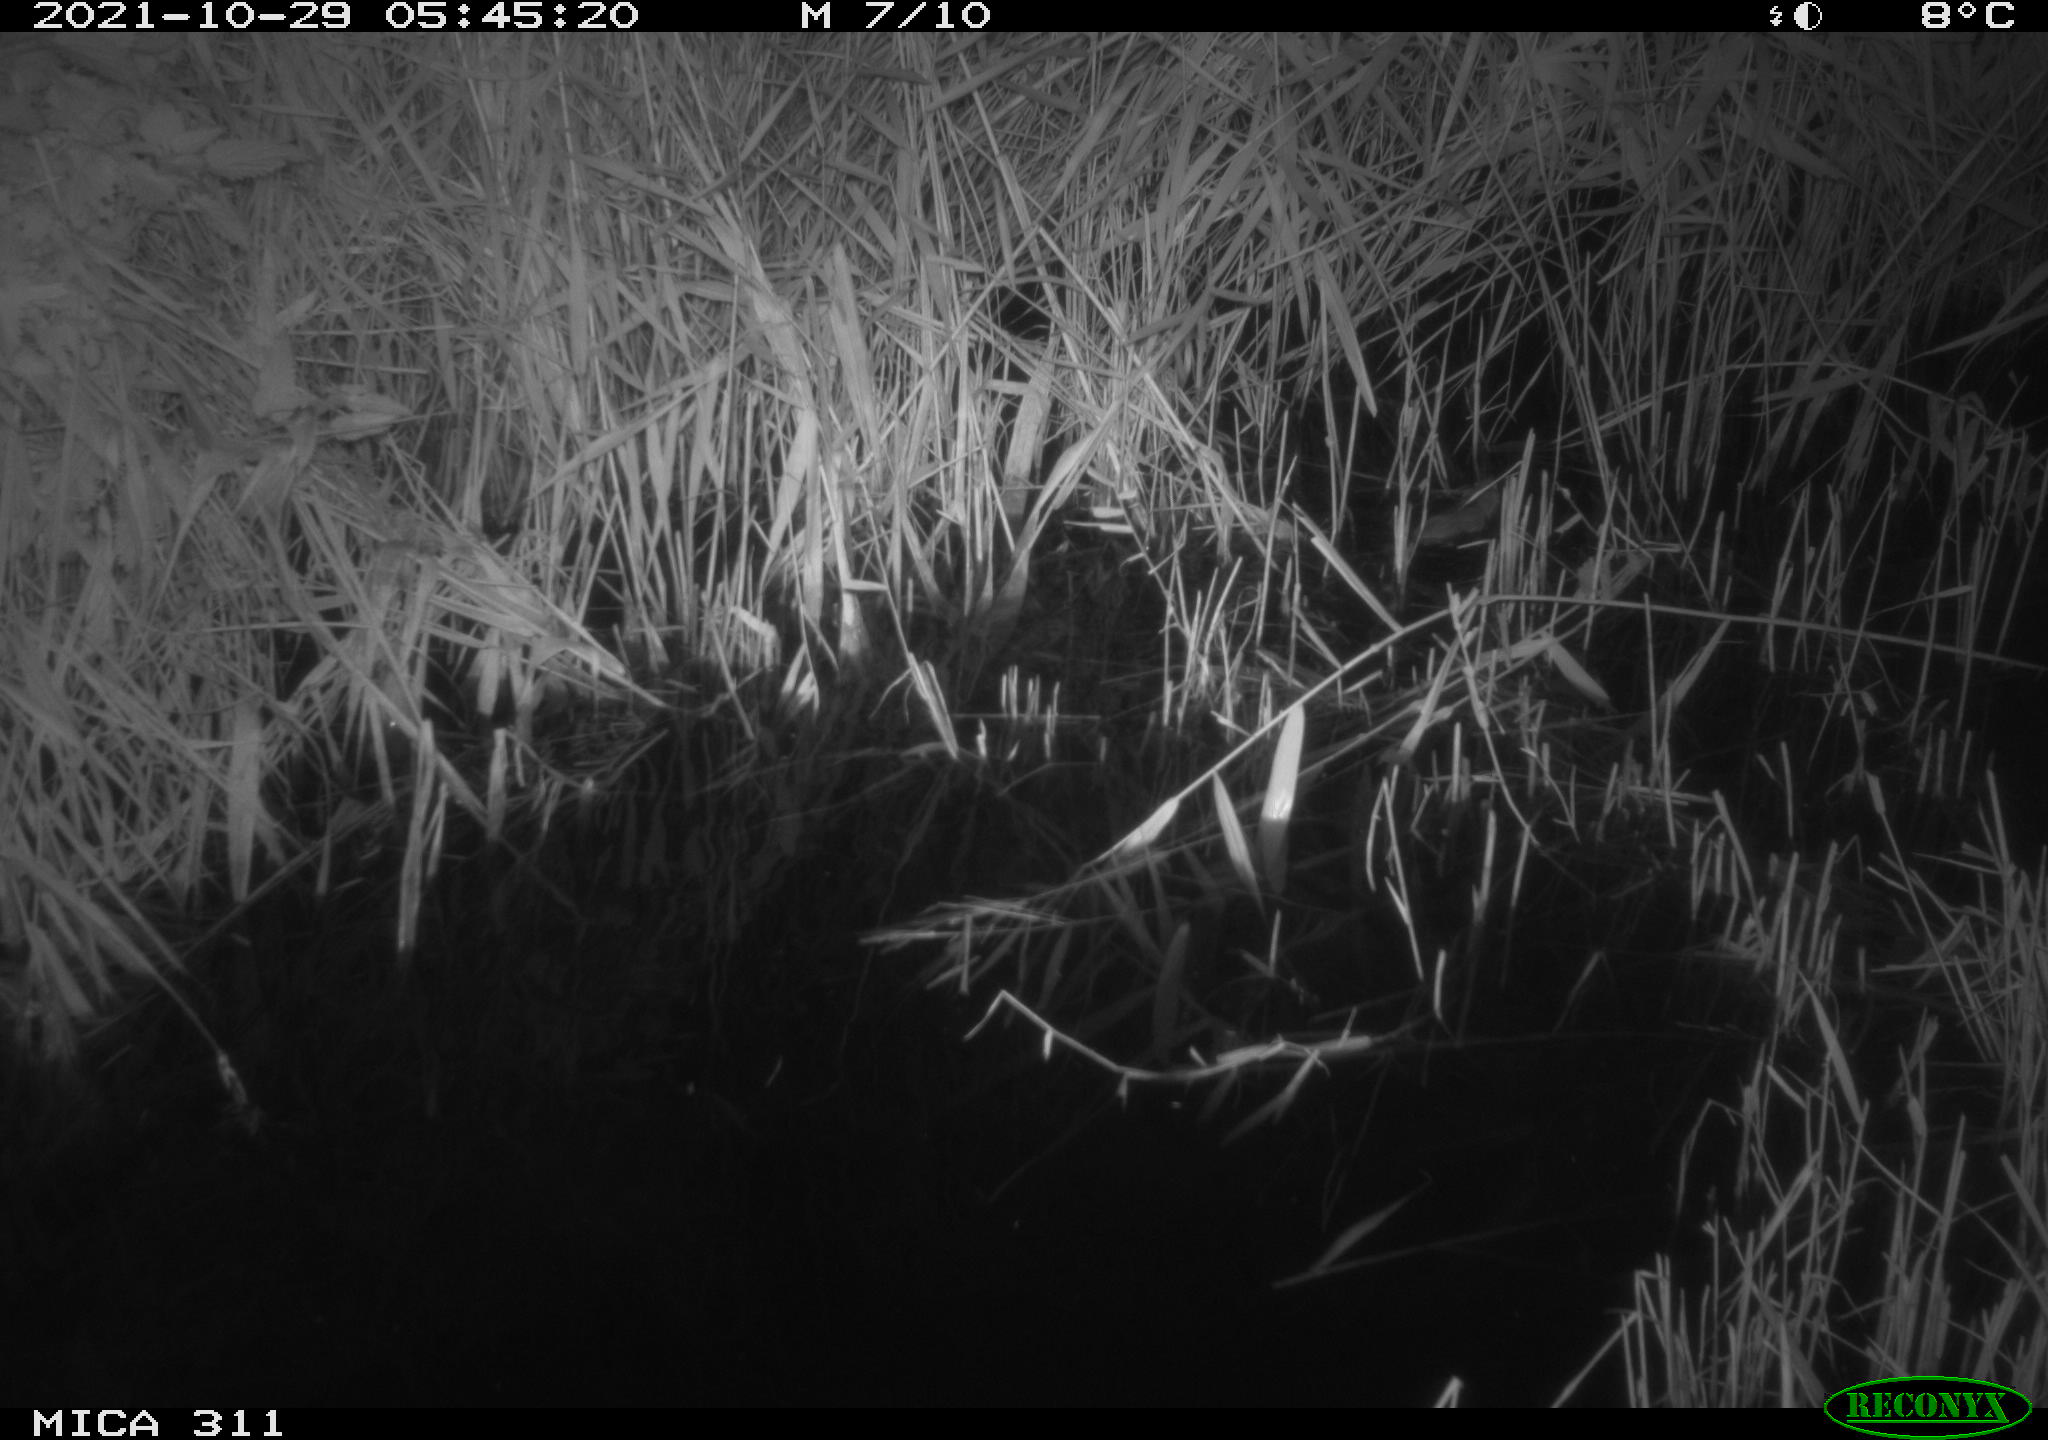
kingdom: Animalia
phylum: Chordata
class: Mammalia
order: Rodentia
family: Muridae
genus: Rattus
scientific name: Rattus norvegicus
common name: Brown rat
